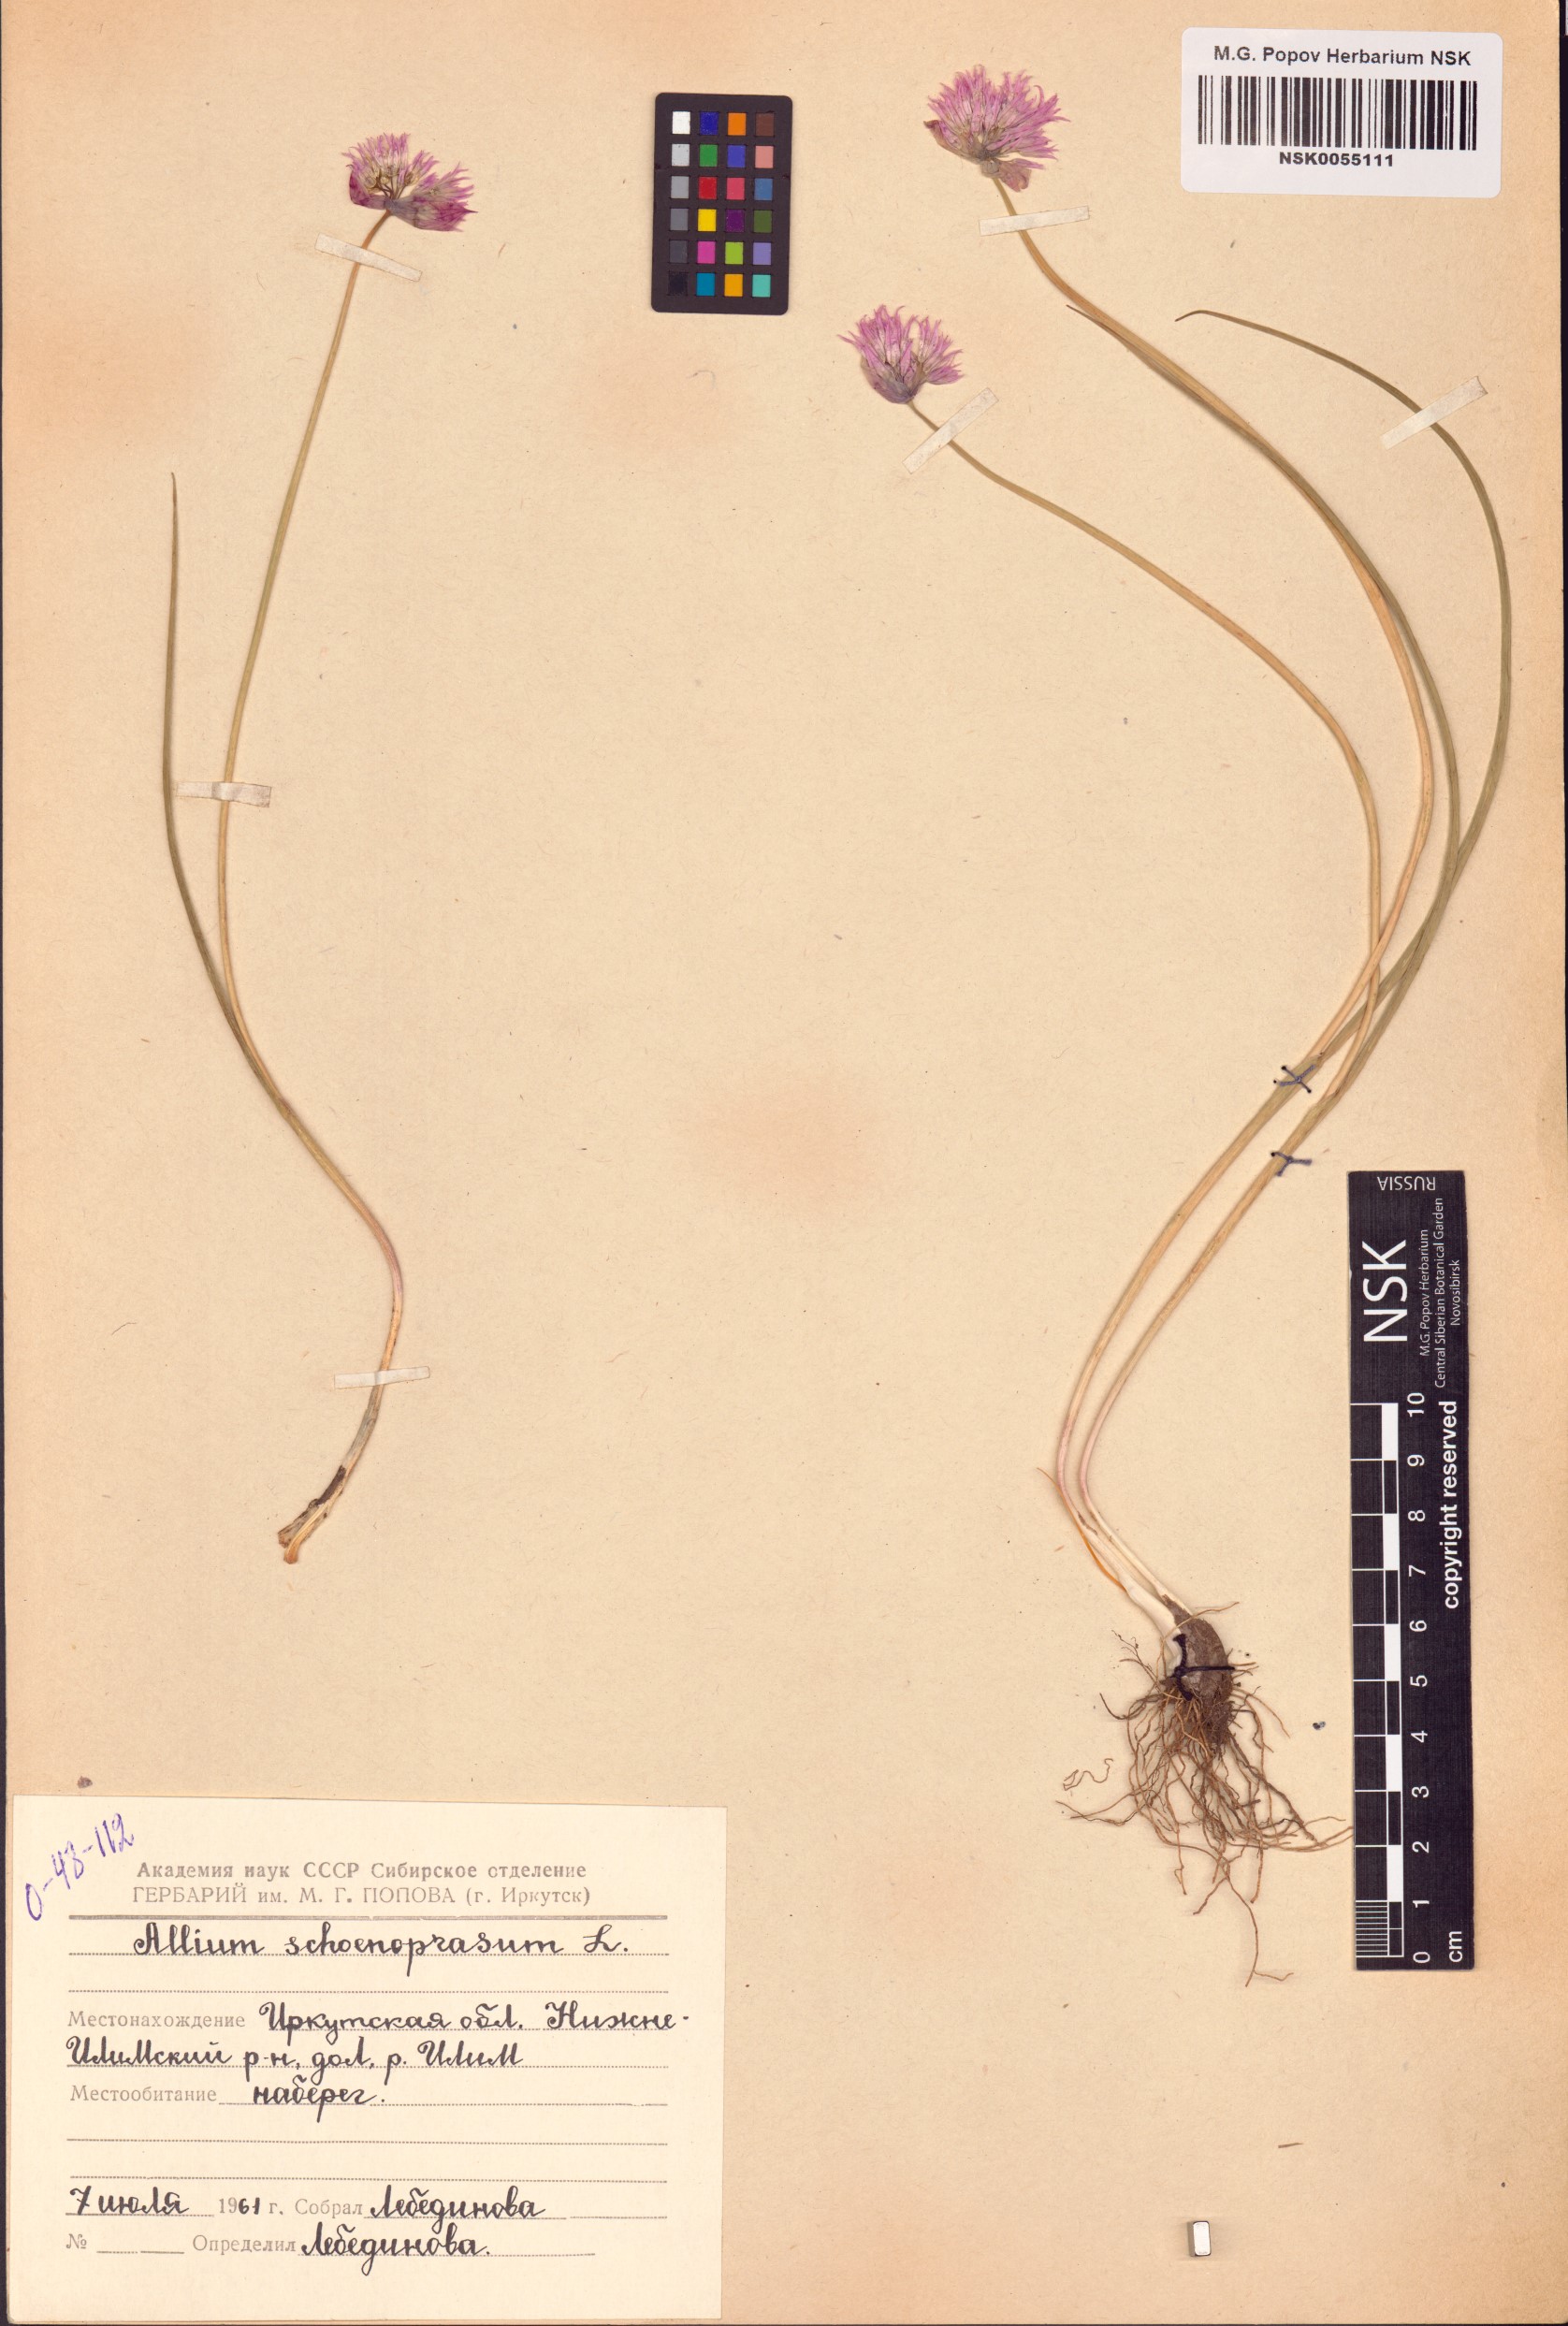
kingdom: Plantae
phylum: Tracheophyta
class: Liliopsida
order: Asparagales
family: Amaryllidaceae
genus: Allium
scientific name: Allium schoenoprasum
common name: Chives
